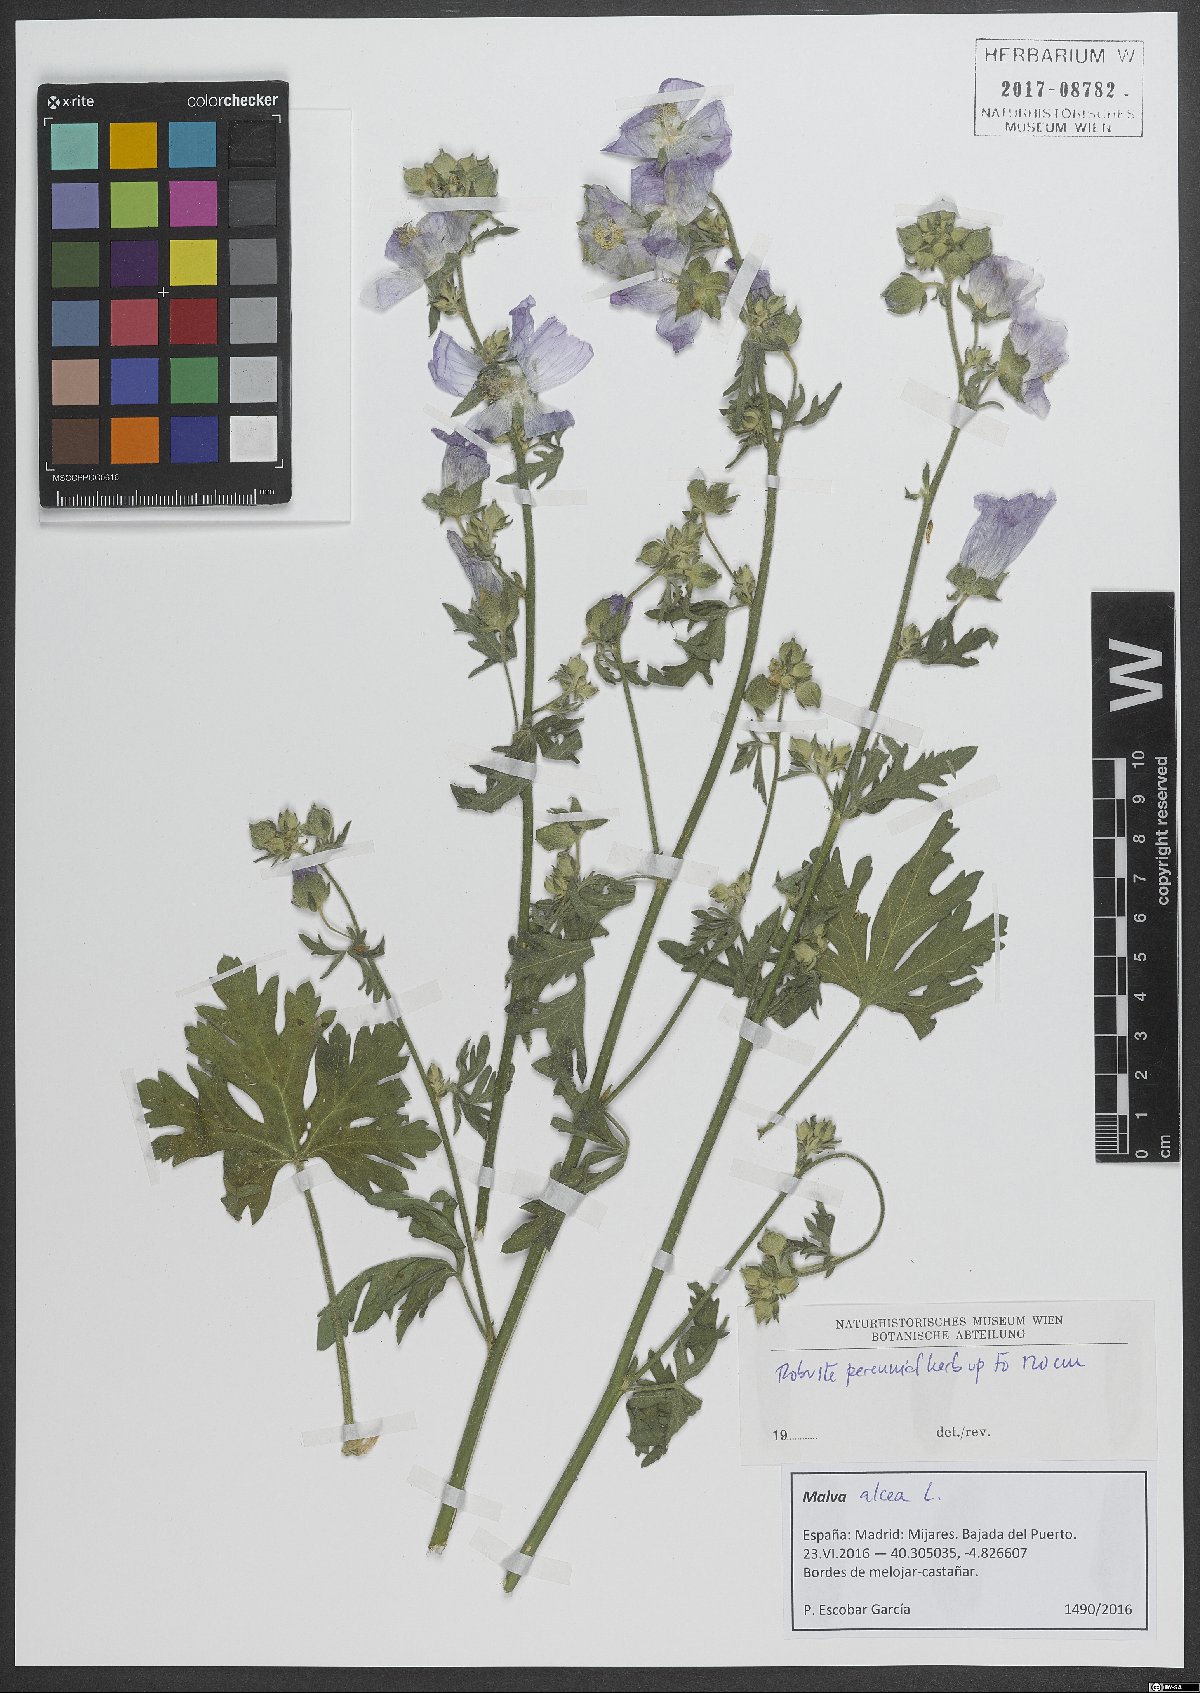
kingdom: Plantae
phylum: Tracheophyta
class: Magnoliopsida
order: Malvales
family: Malvaceae
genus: Malva
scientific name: Malva alcea
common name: Greater musk-mallow
